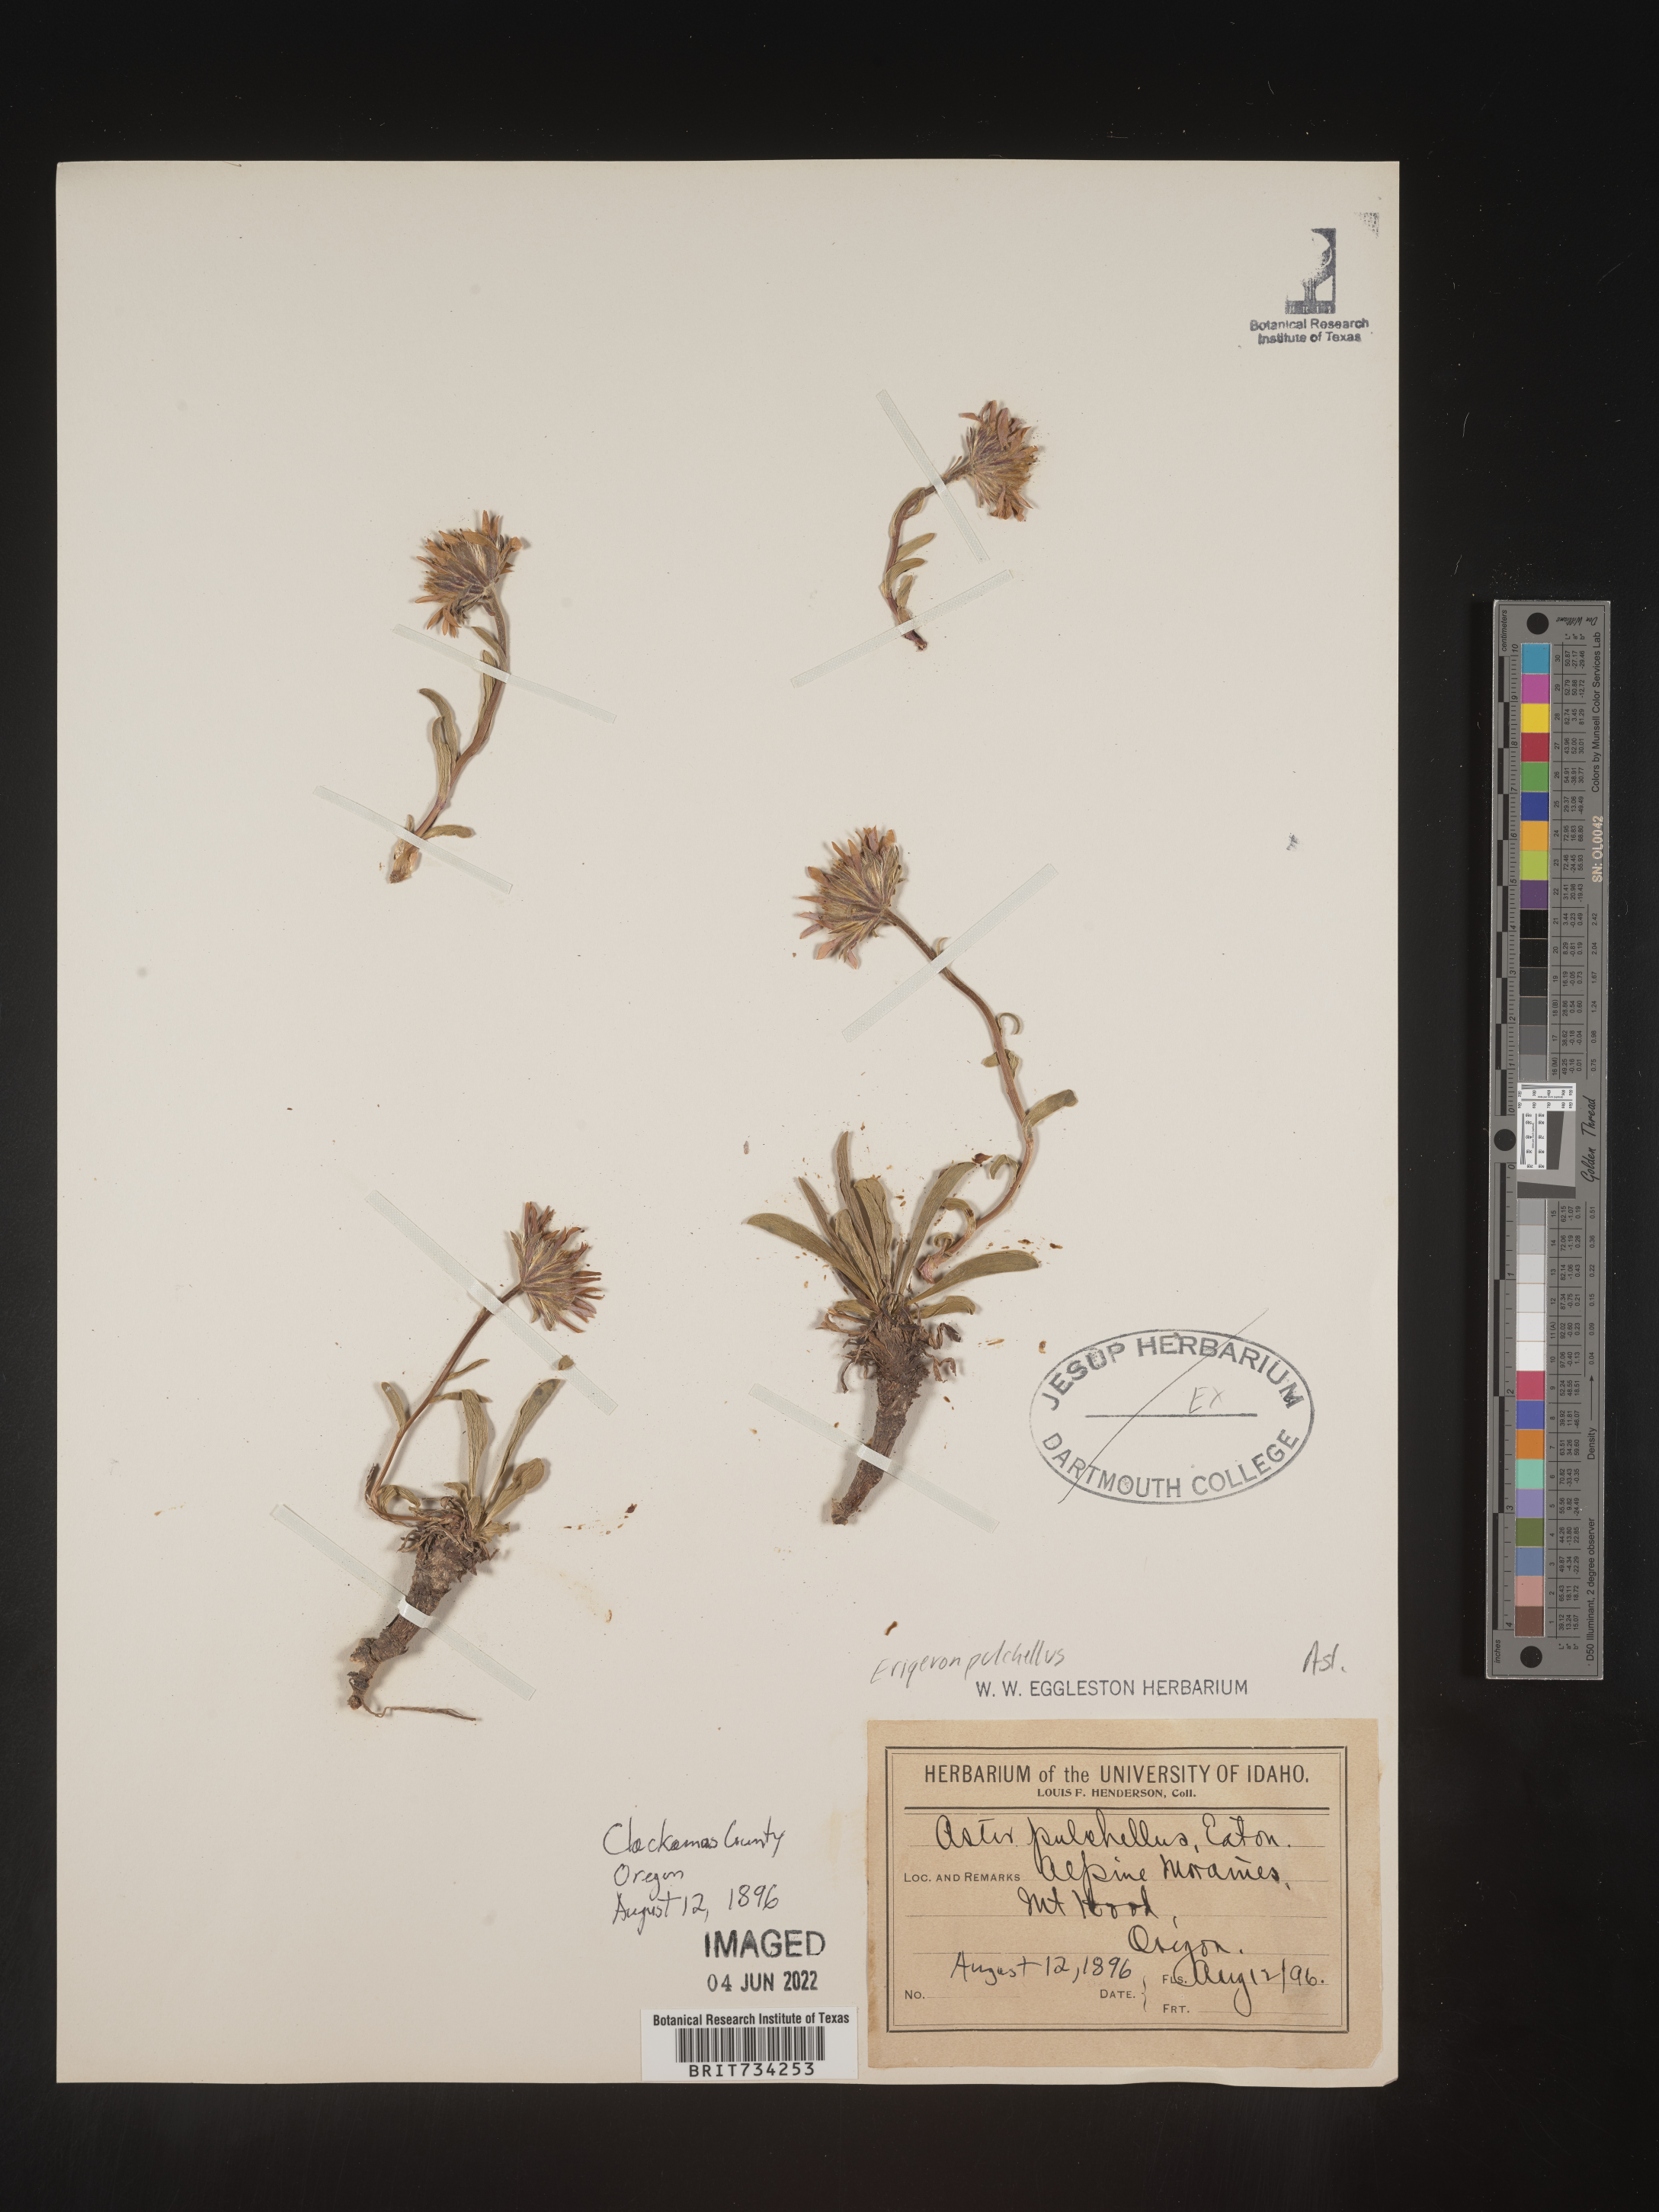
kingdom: Plantae
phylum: Tracheophyta
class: Magnoliopsida
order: Asterales
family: Asteraceae
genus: Oreostemma
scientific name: Oreostemma alpigenum
